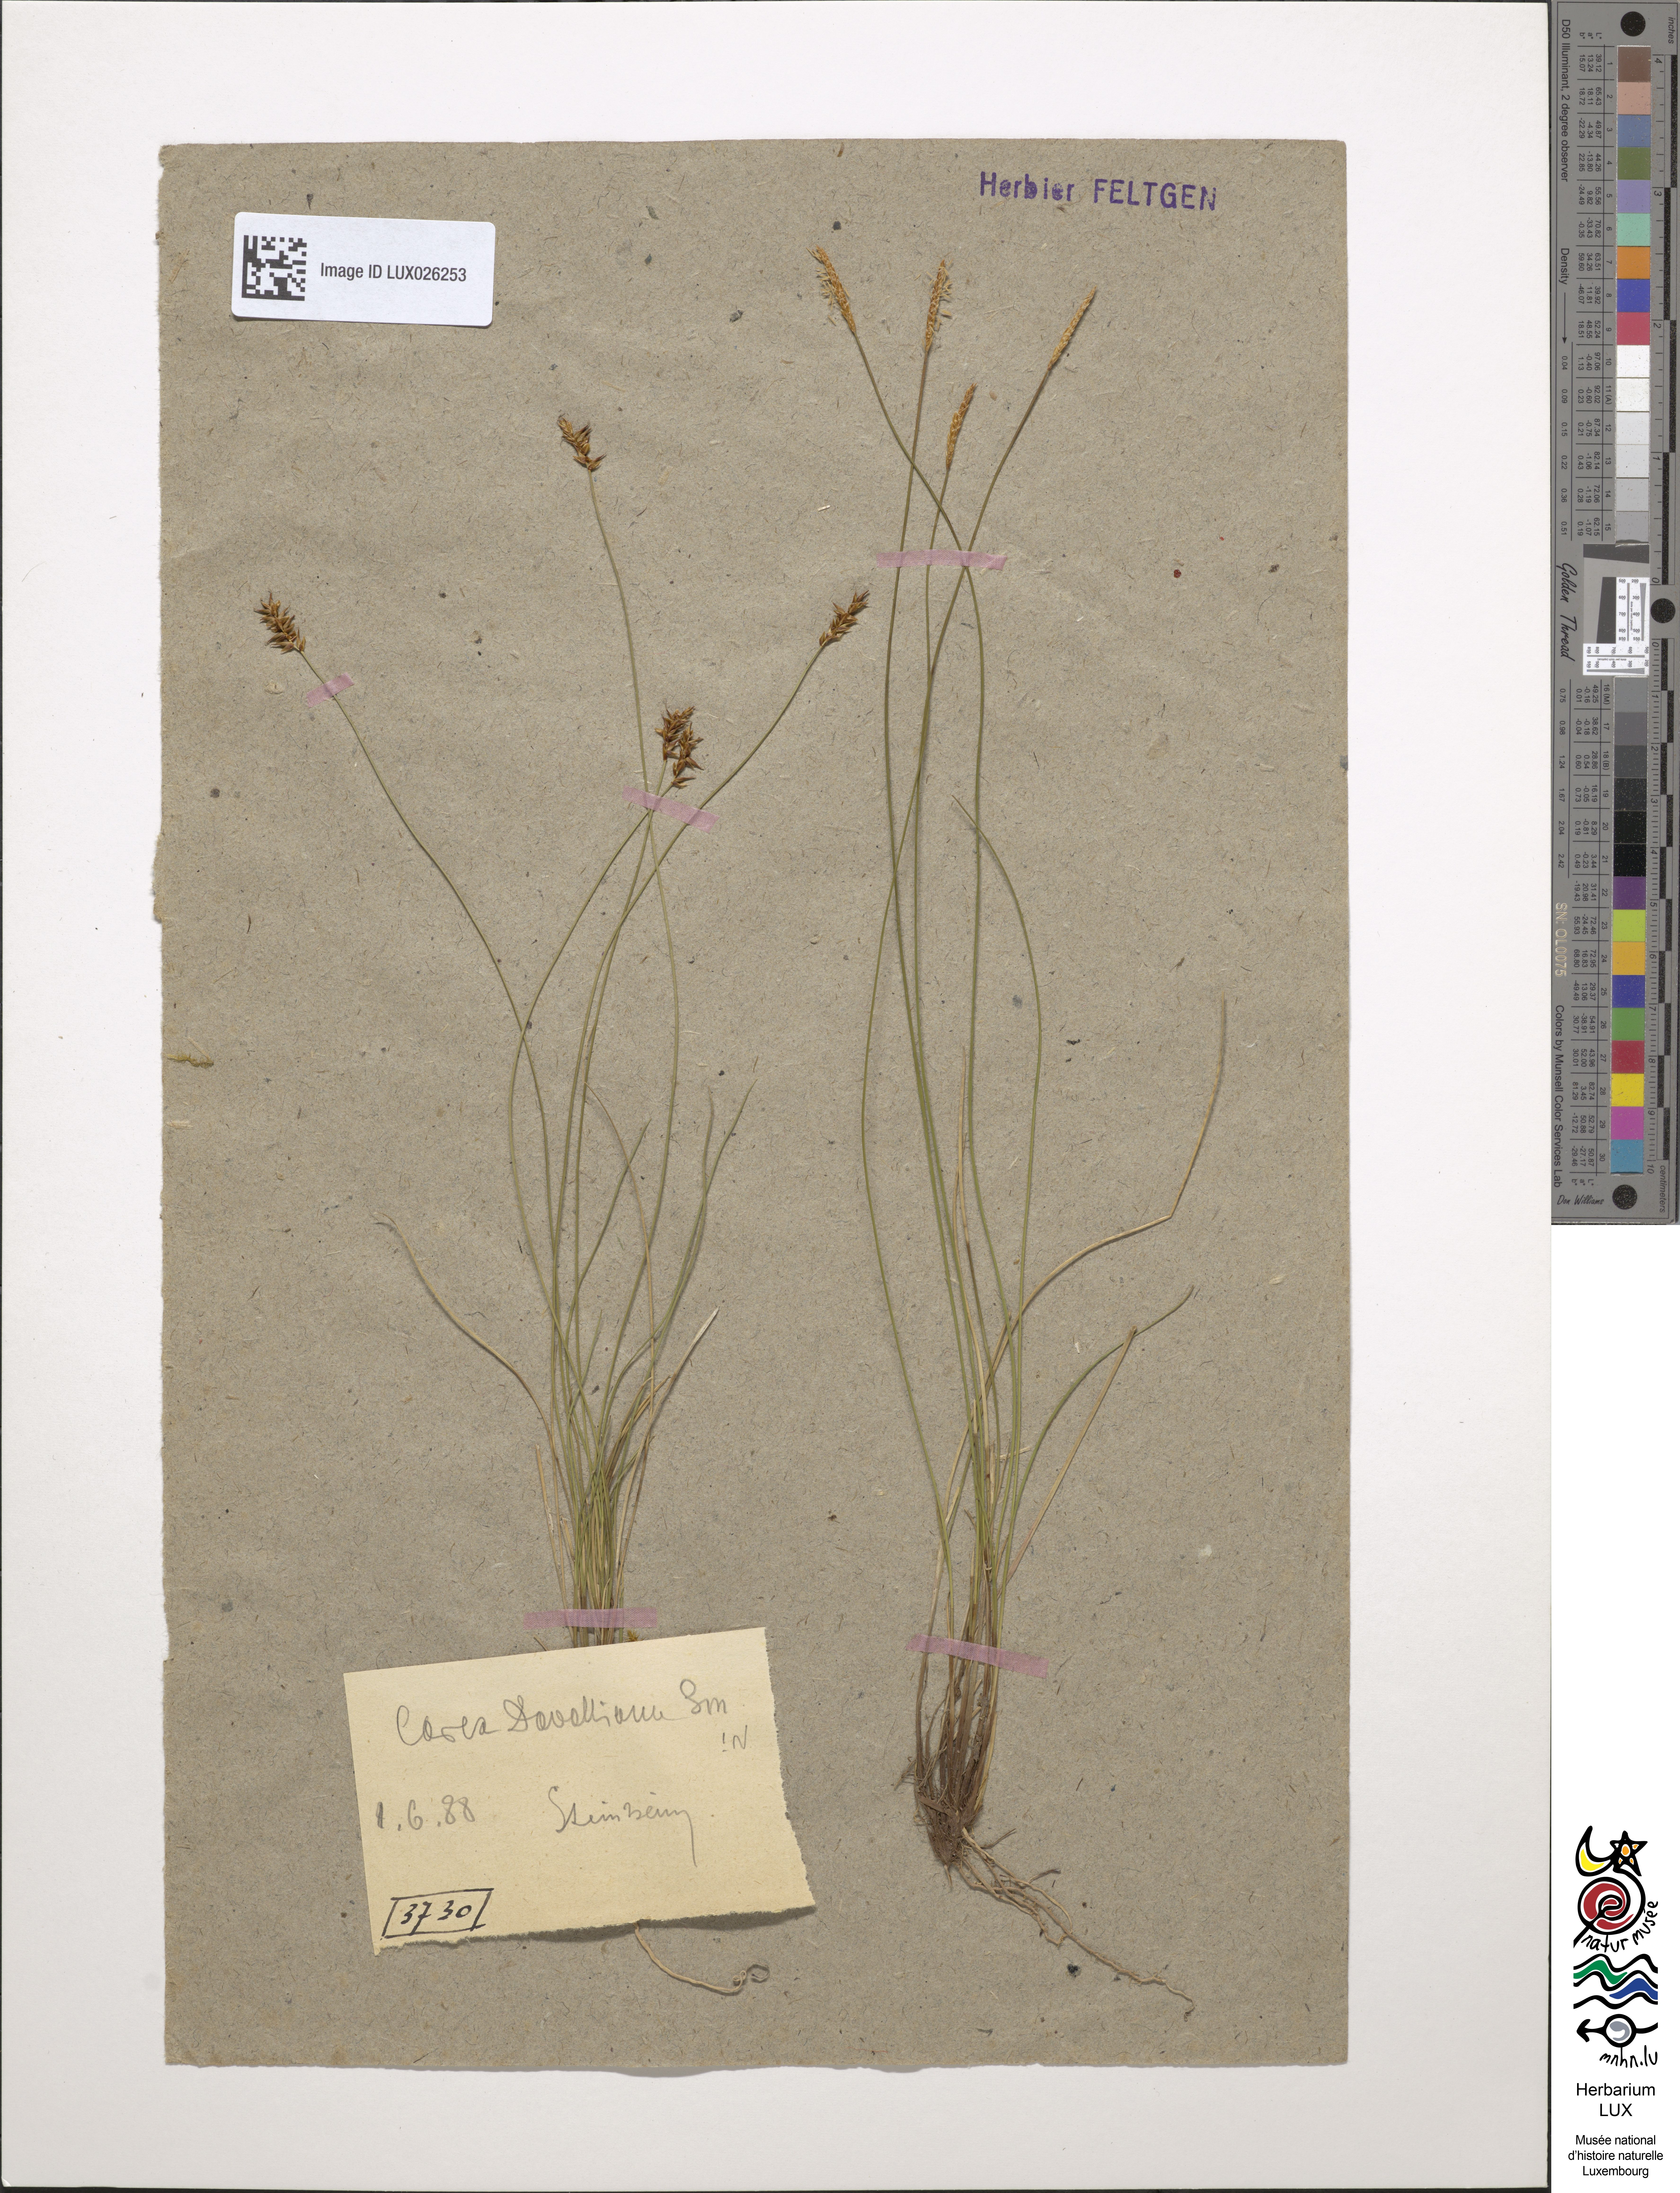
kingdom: Plantae
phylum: Tracheophyta
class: Liliopsida
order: Poales
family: Cyperaceae
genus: Carex
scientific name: Carex davalliana
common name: Davall's sedge
